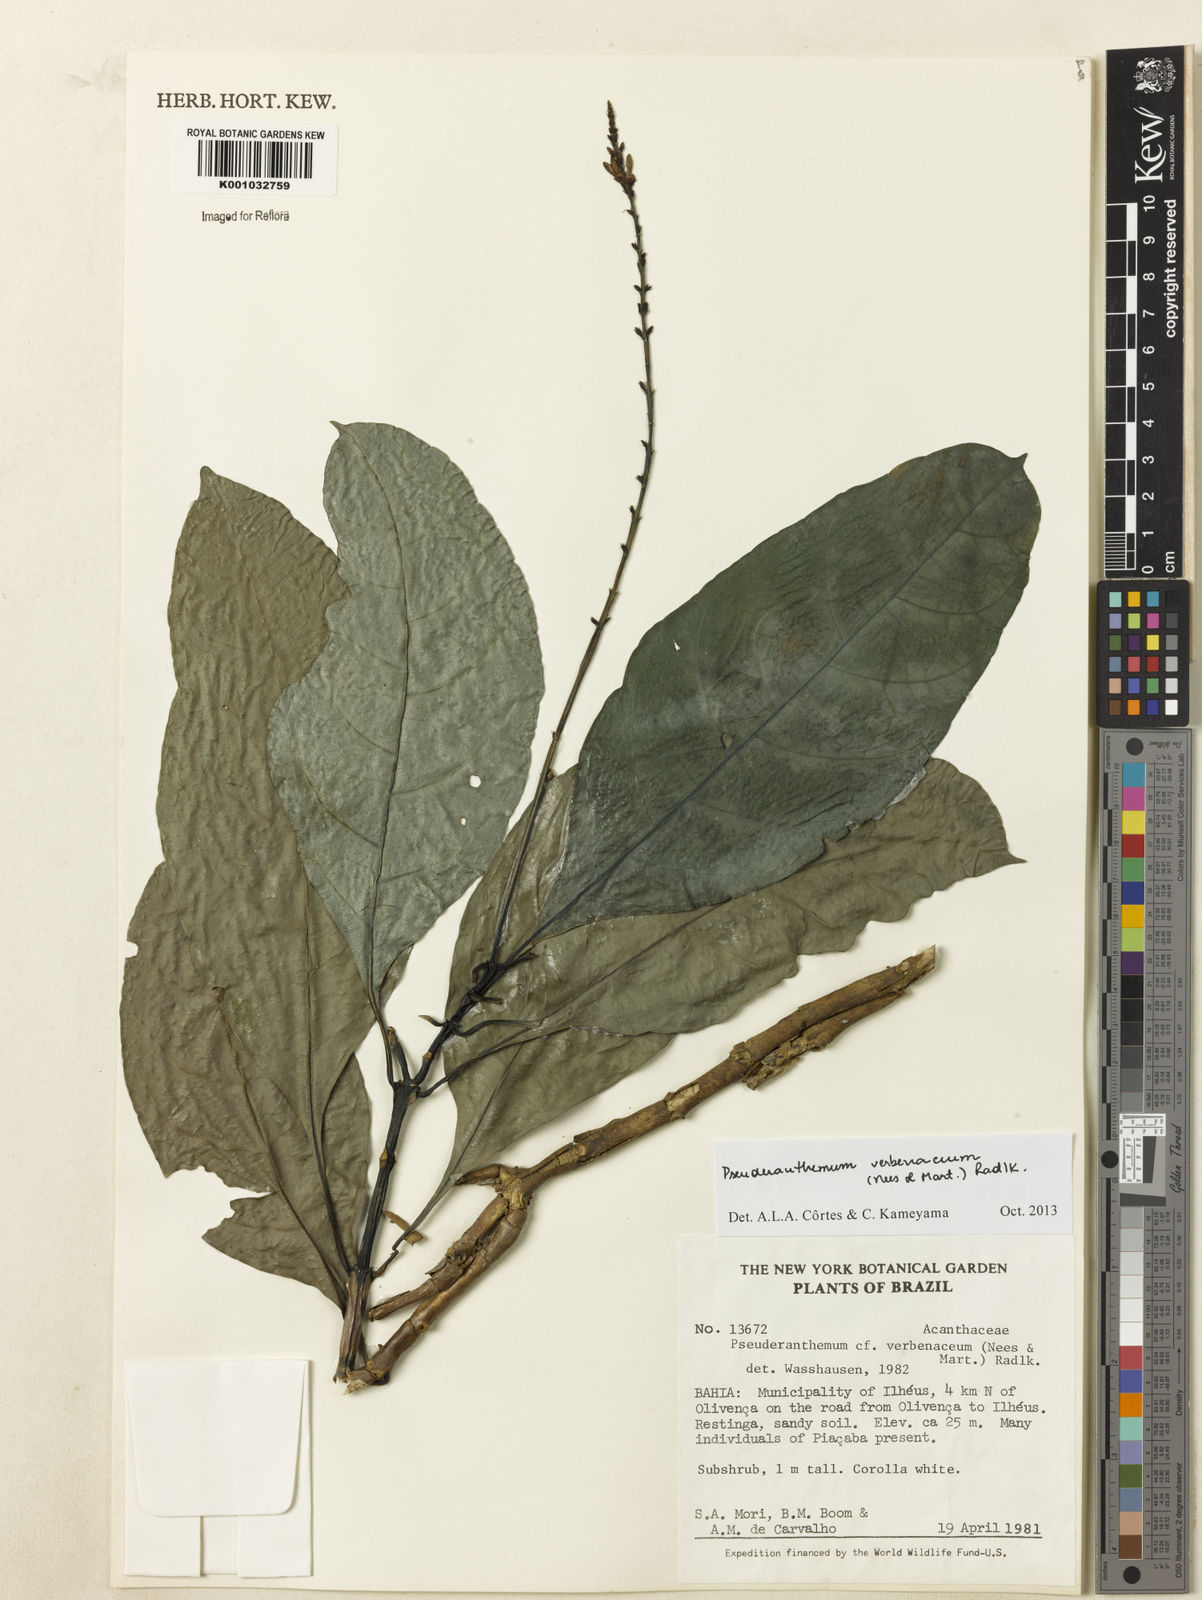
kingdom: Plantae
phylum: Tracheophyta
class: Magnoliopsida
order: Lamiales
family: Acanthaceae
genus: Pseuderanthemum
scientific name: Pseuderanthemum verbenaceum
